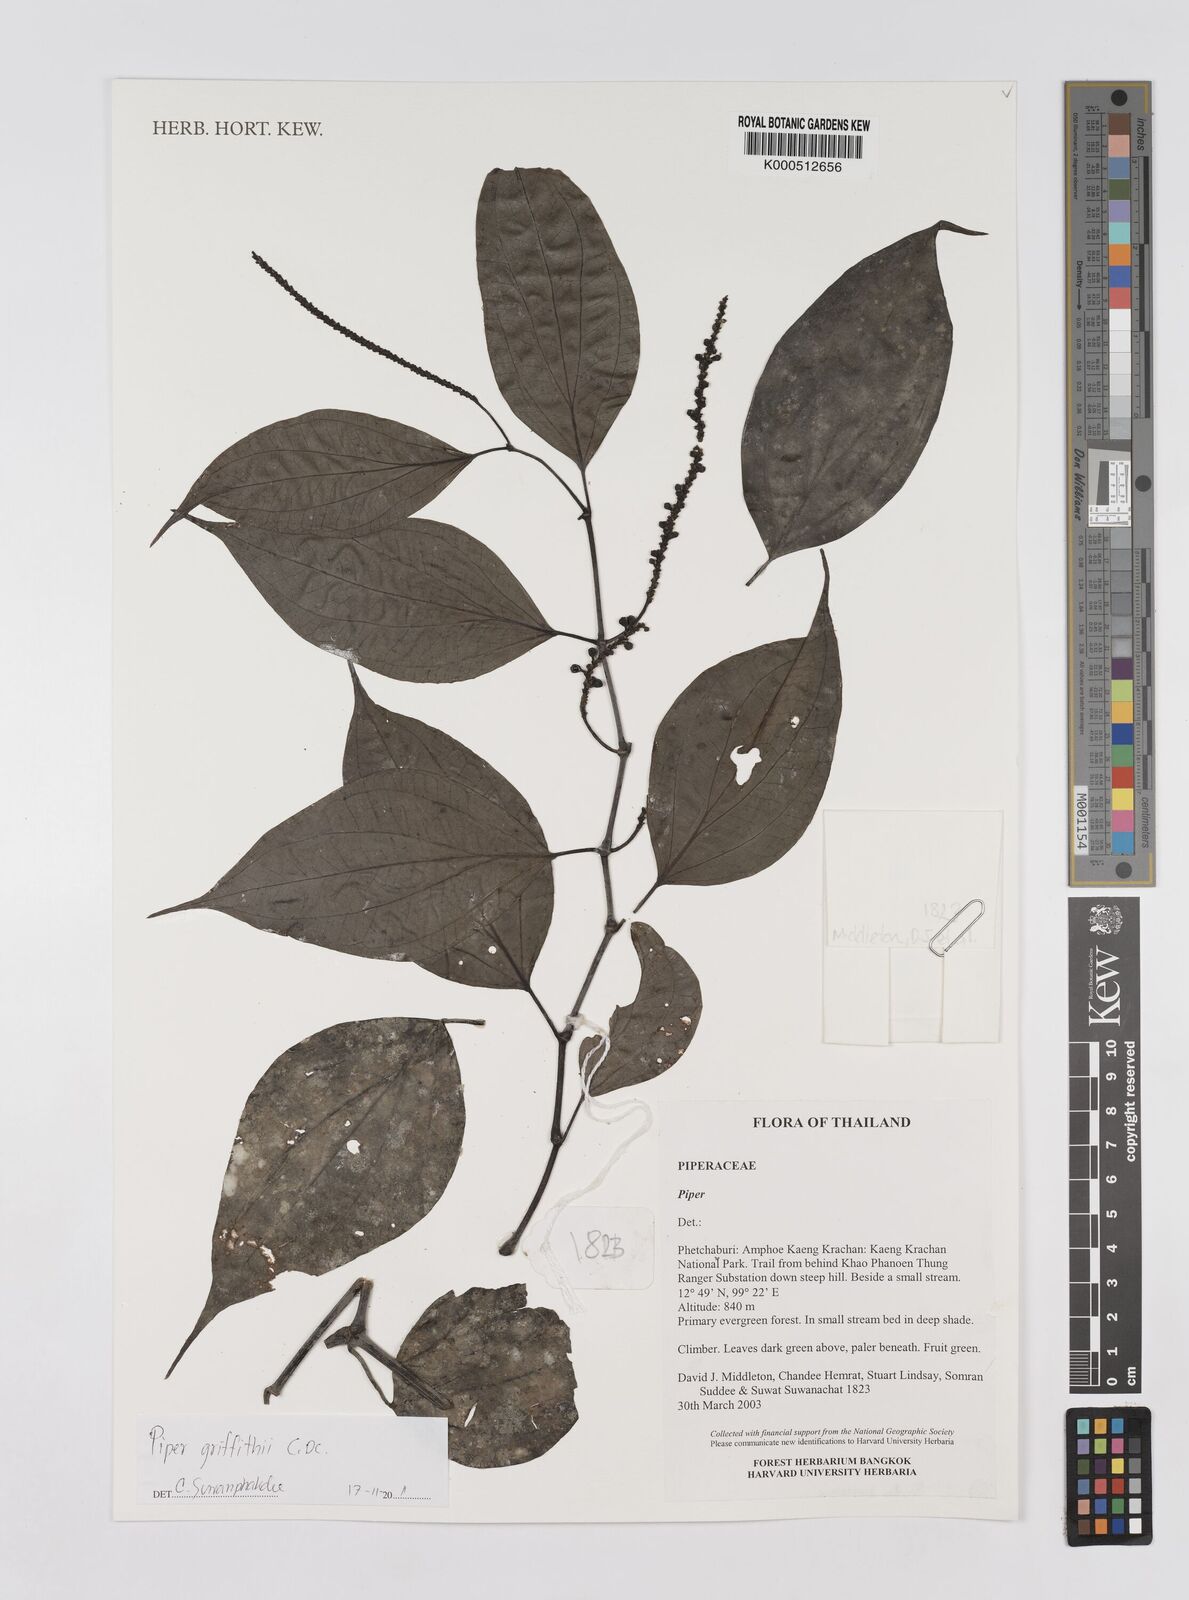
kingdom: Plantae
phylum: Tracheophyta
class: Magnoliopsida
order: Piperales
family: Piperaceae
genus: Piper
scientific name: Piper
